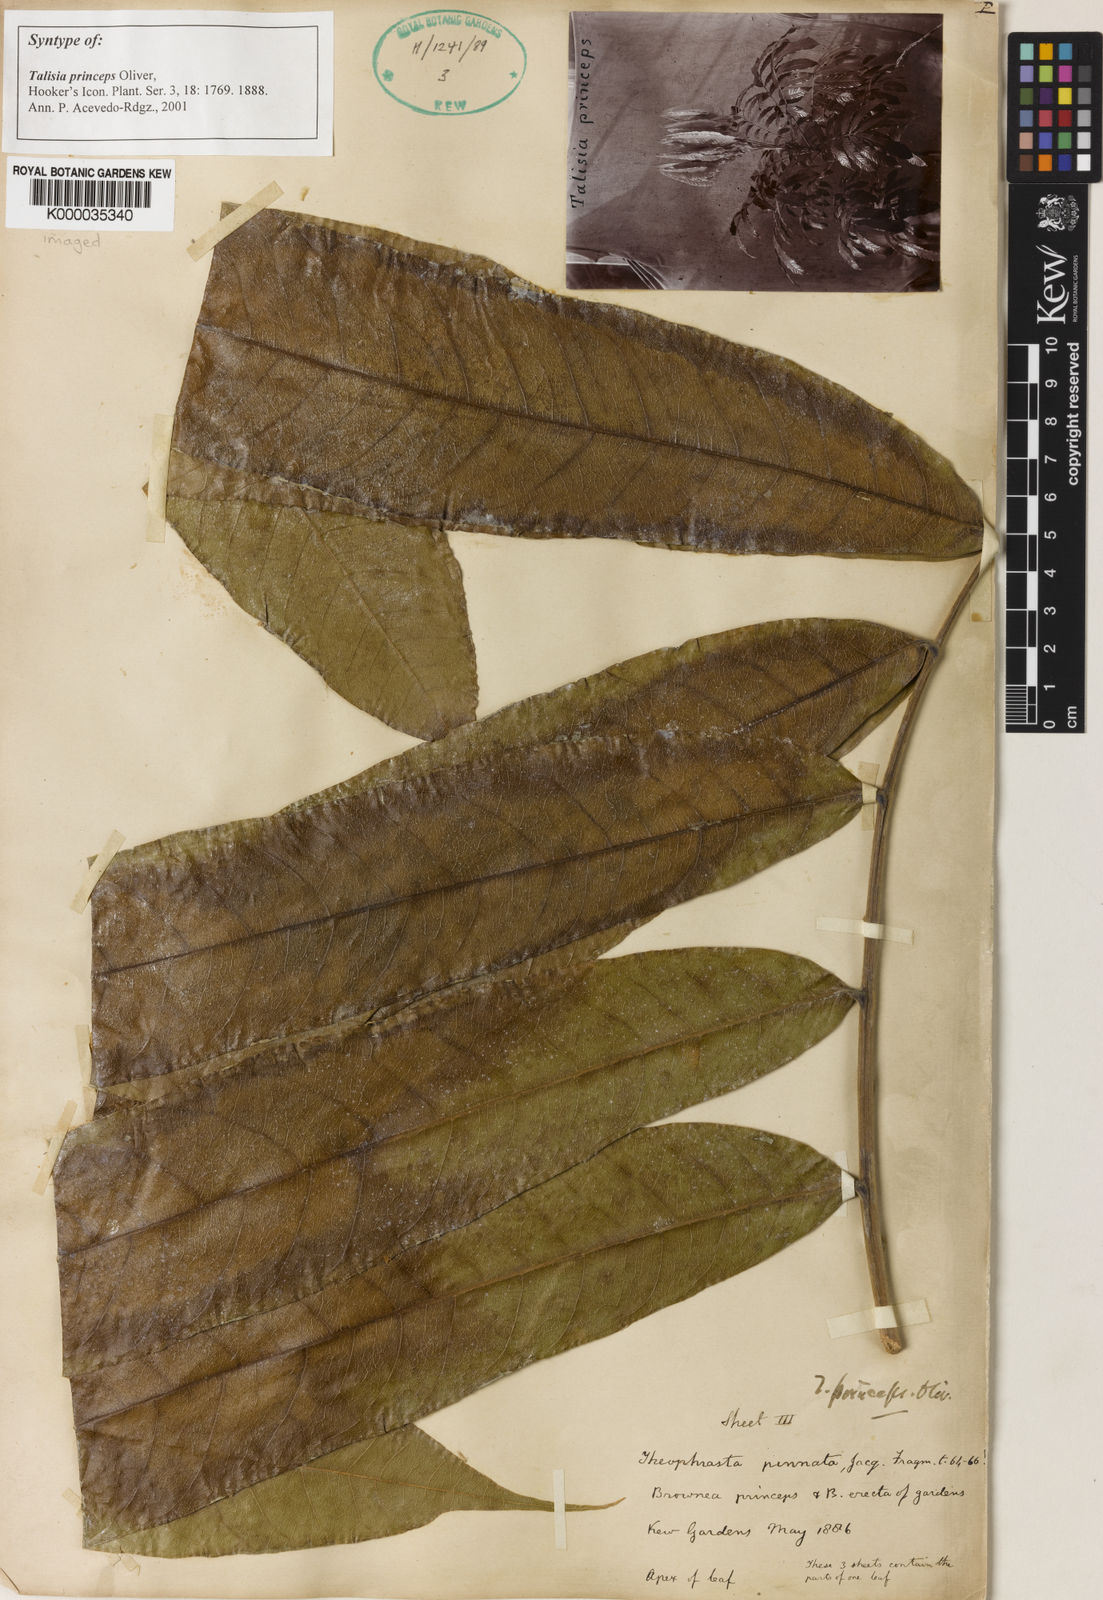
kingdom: Plantae
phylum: Tracheophyta
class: Magnoliopsida
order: Sapindales
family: Sapindaceae
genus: Talisia
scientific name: Talisia princeps
